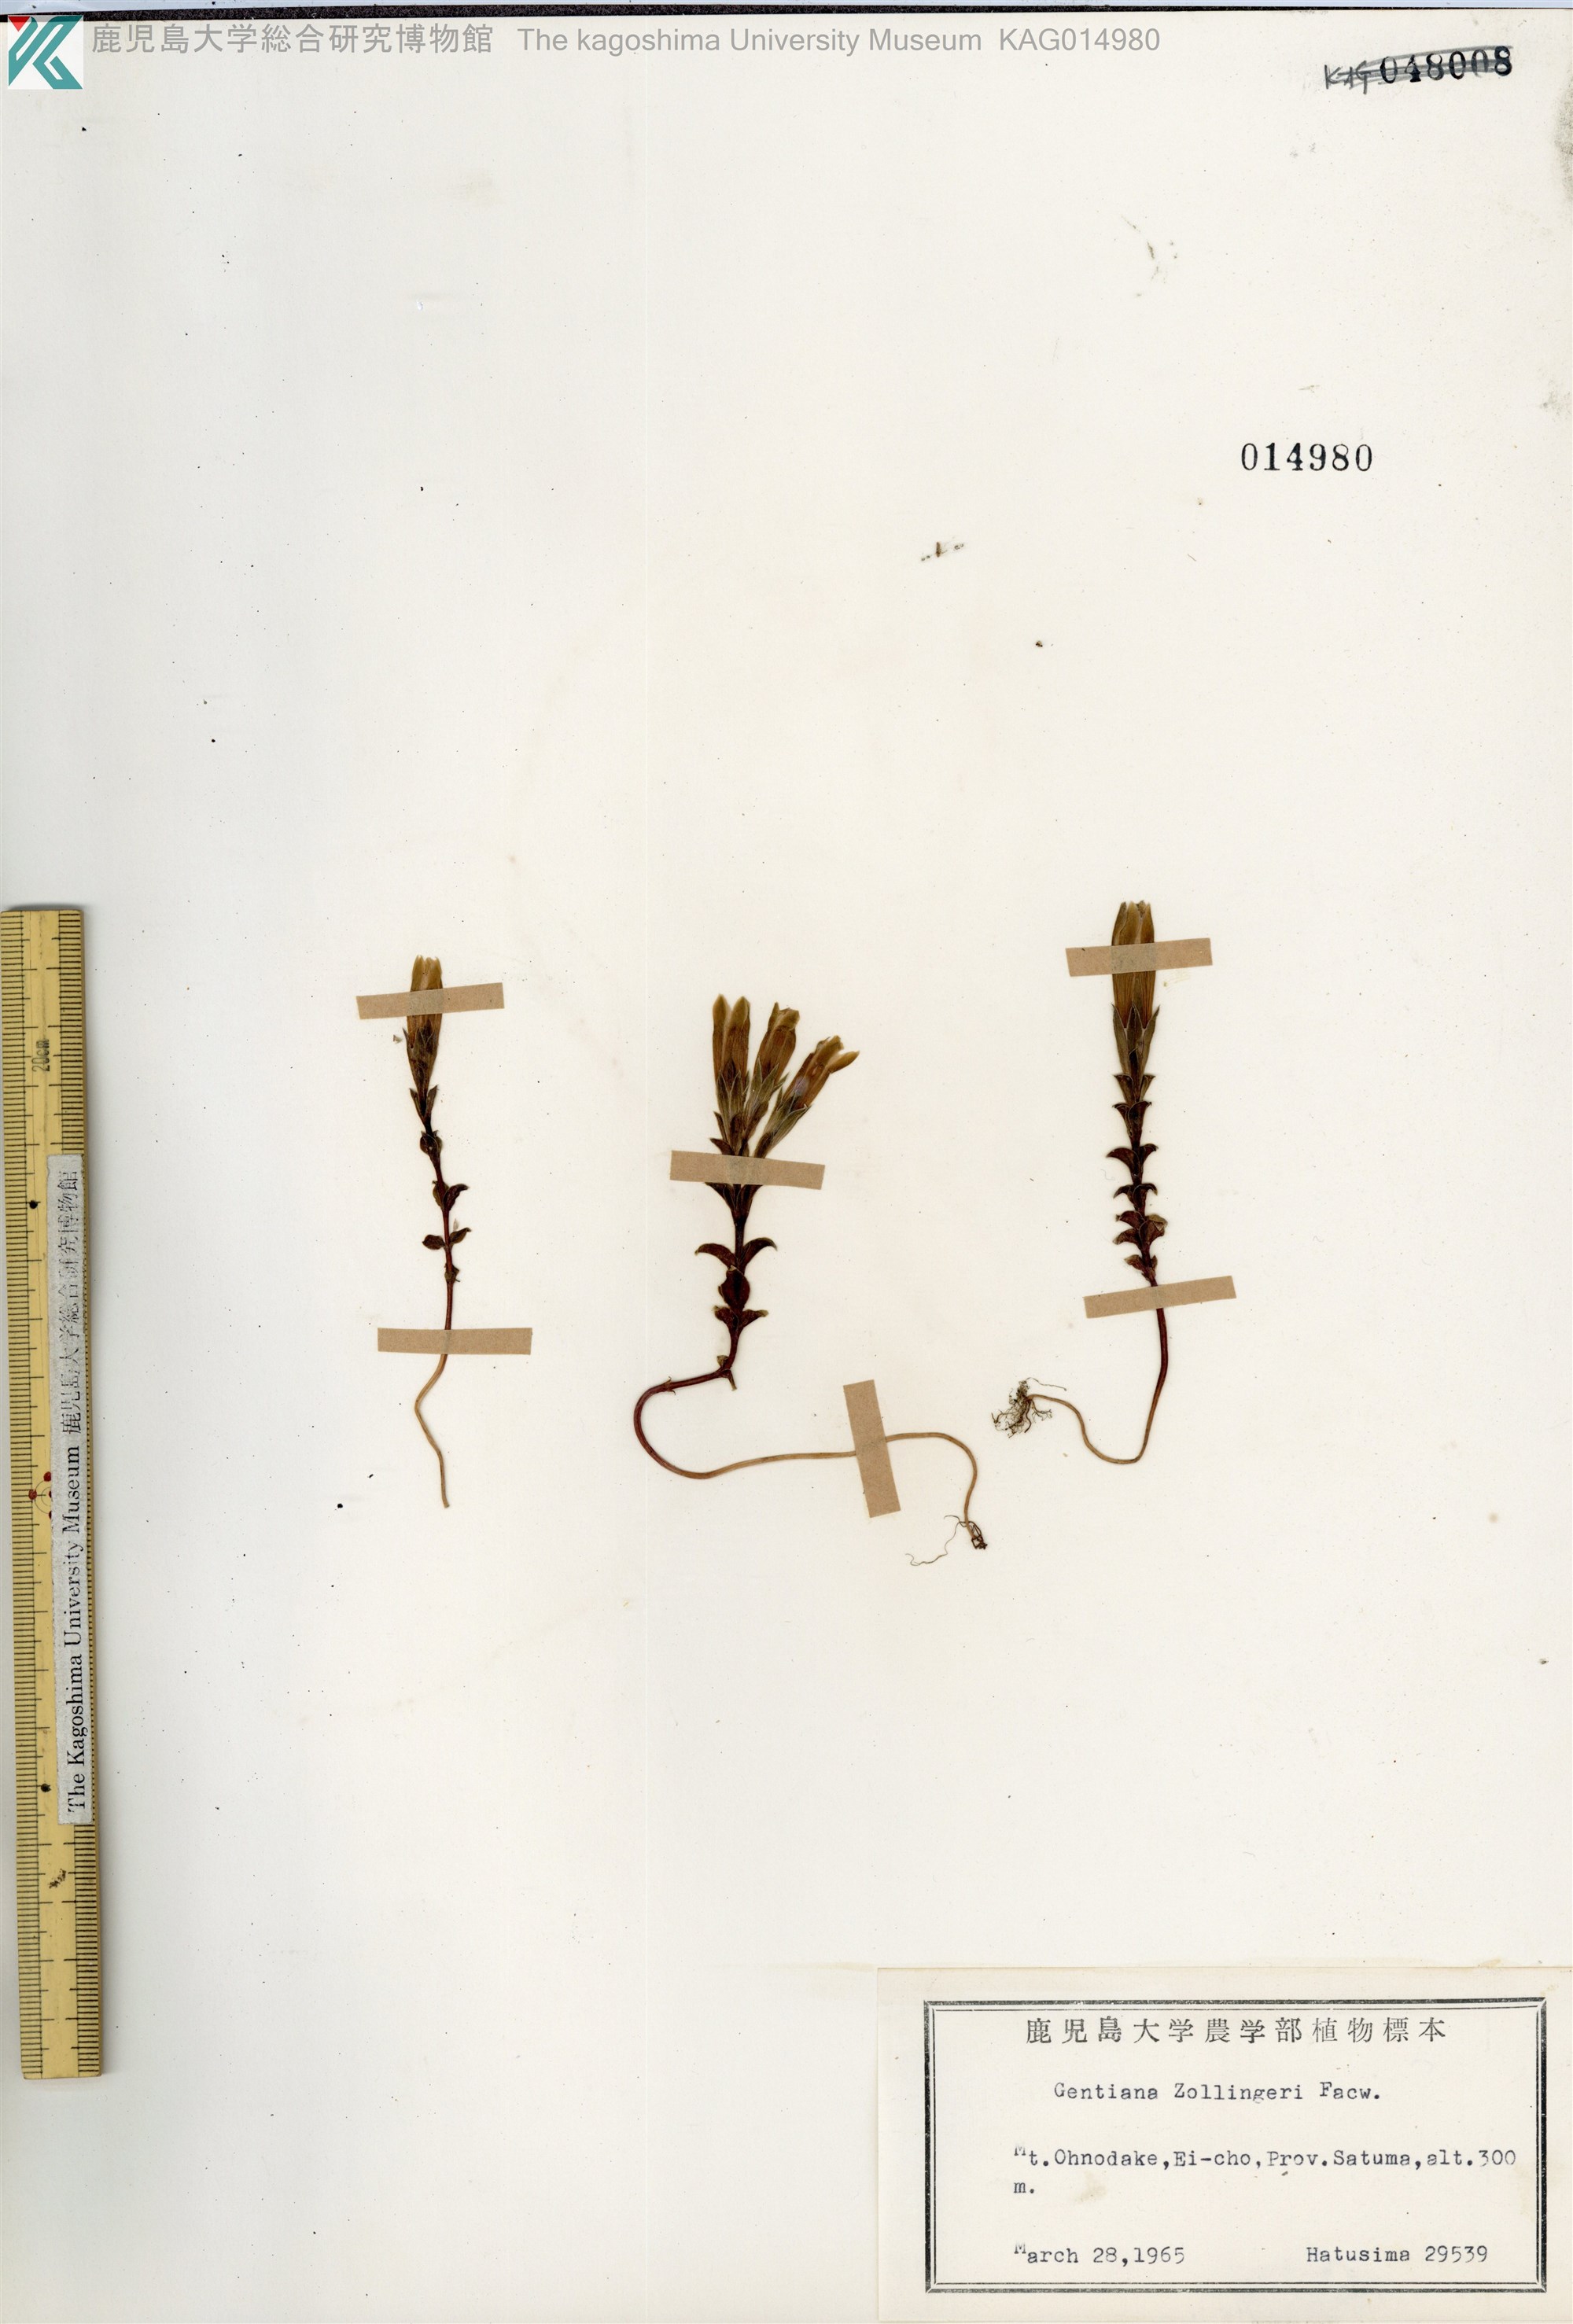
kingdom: Plantae
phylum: Tracheophyta
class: Magnoliopsida
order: Gentianales
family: Gentianaceae
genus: Gentiana
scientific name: Gentiana zollingeri
